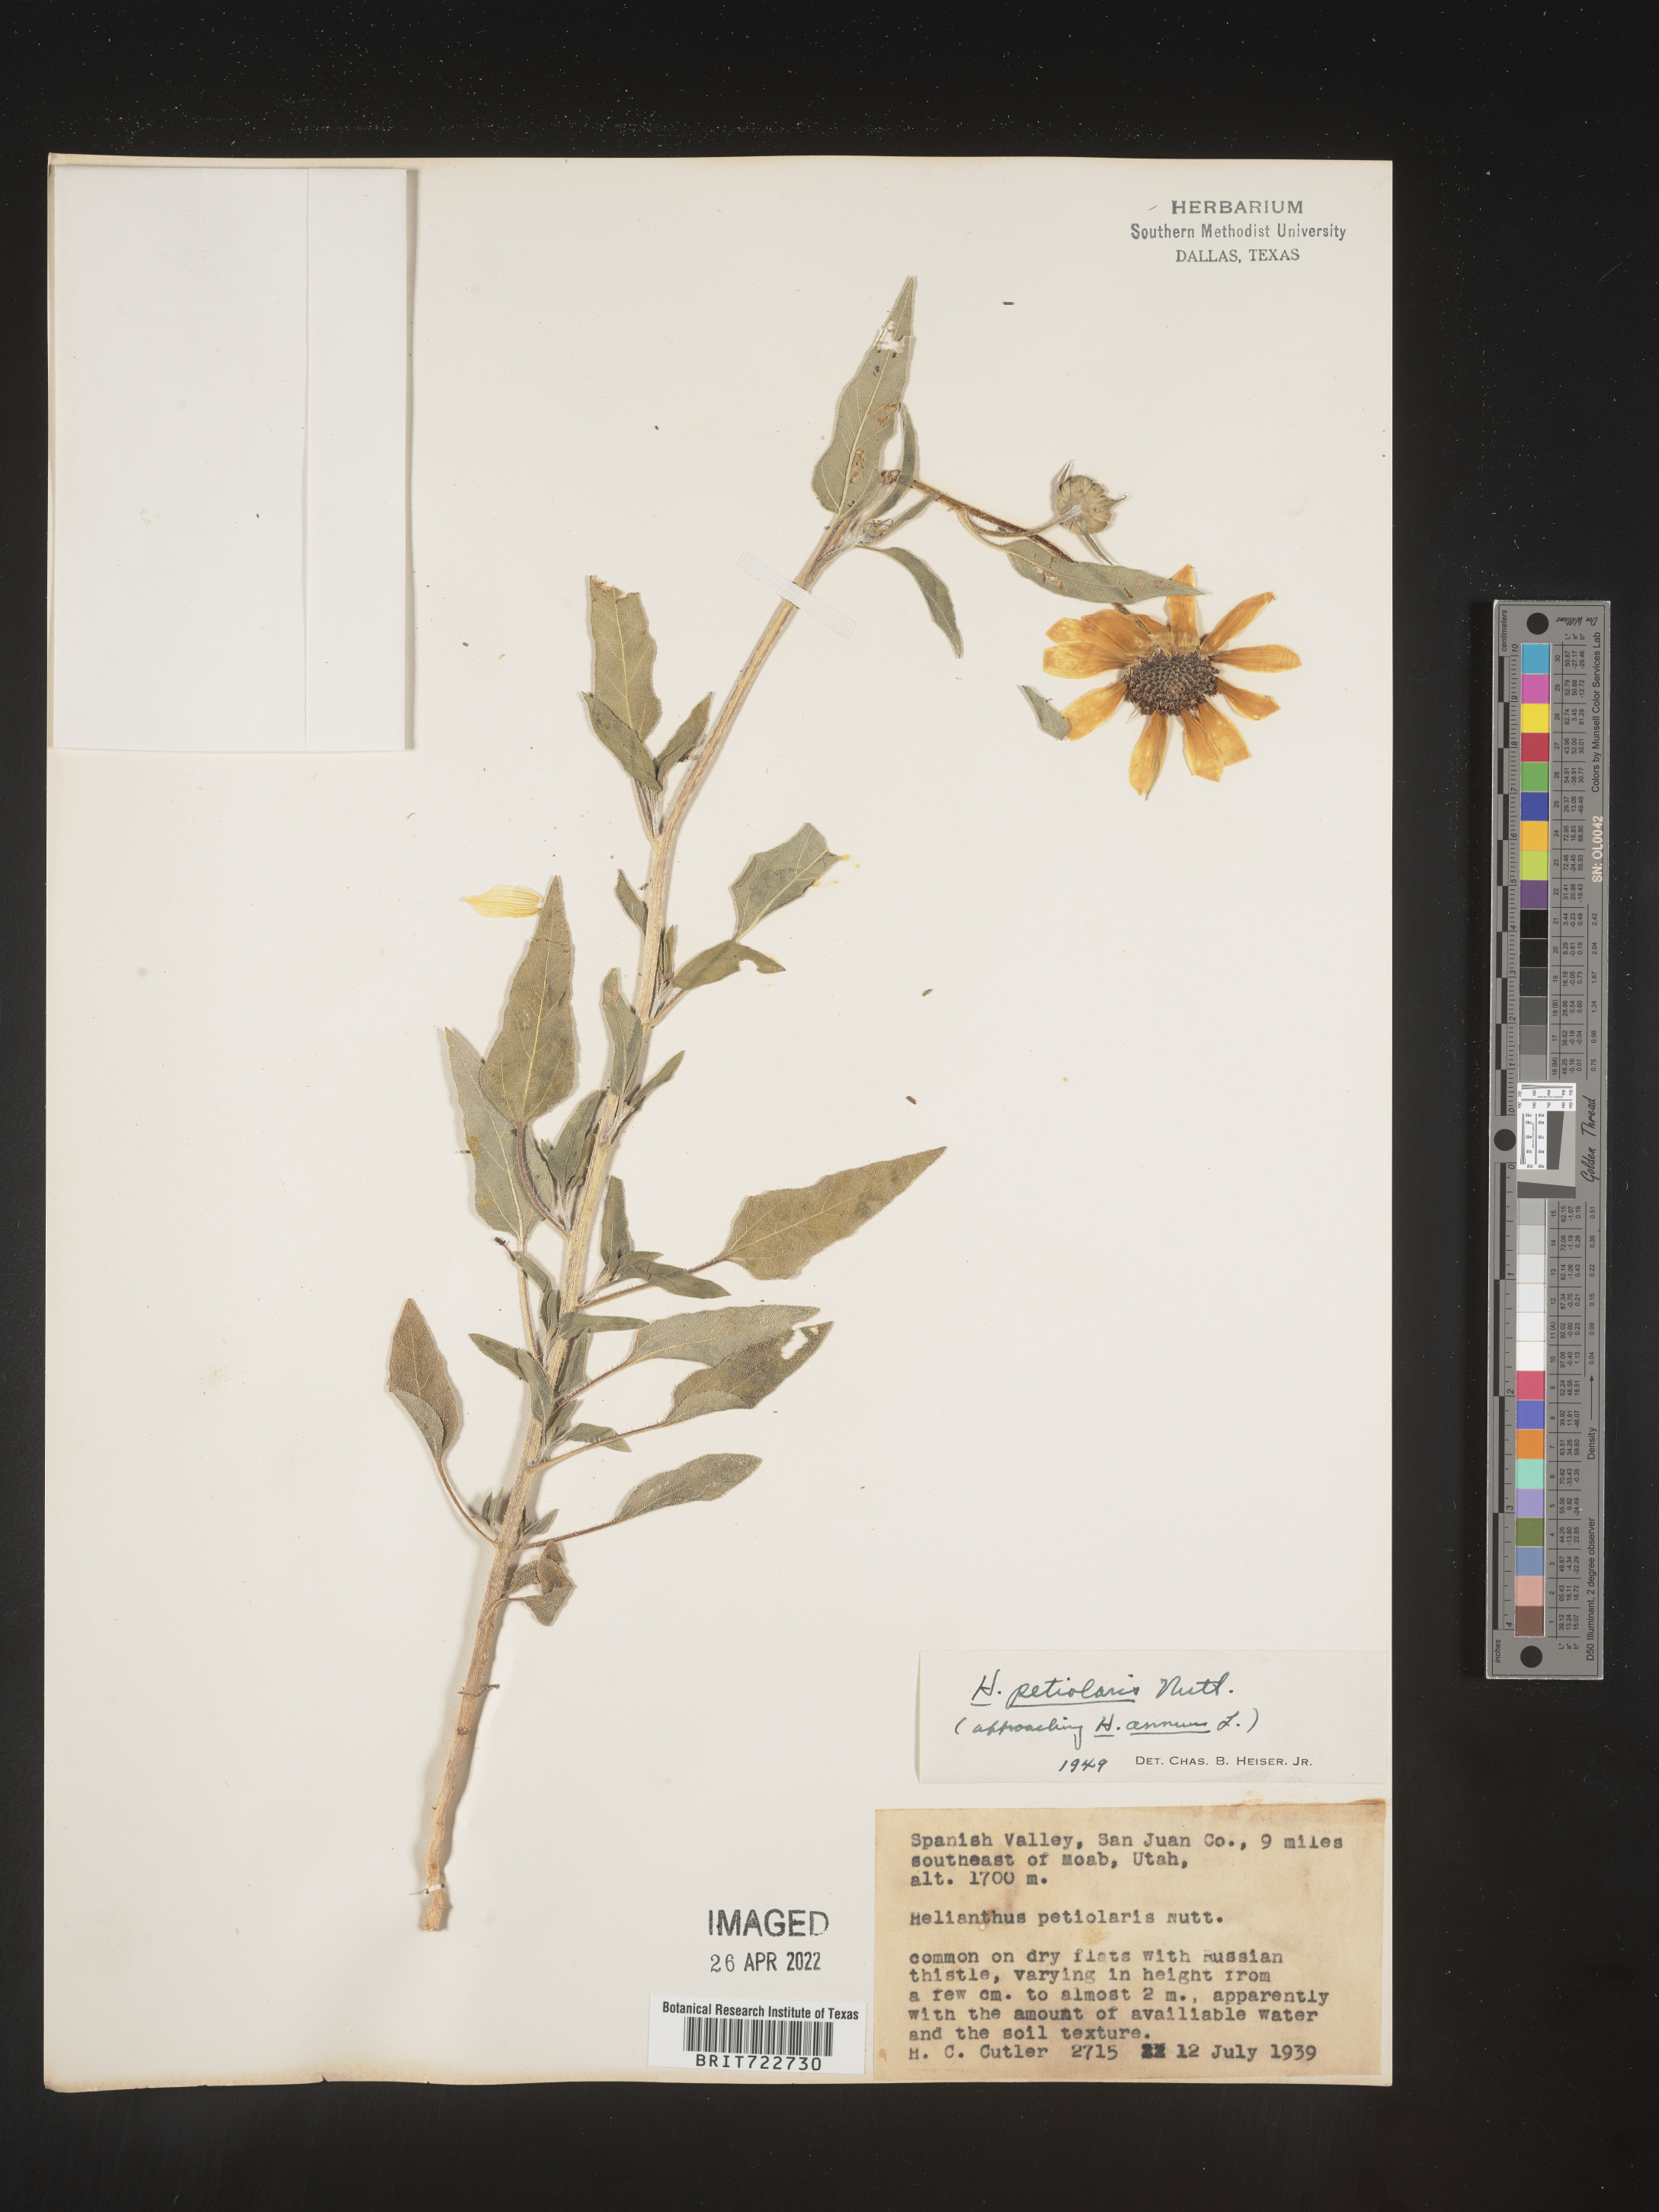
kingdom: Plantae
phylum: Tracheophyta
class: Magnoliopsida
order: Asterales
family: Asteraceae
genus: Helianthus
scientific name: Helianthus petiolaris
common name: Lesser sunflower
